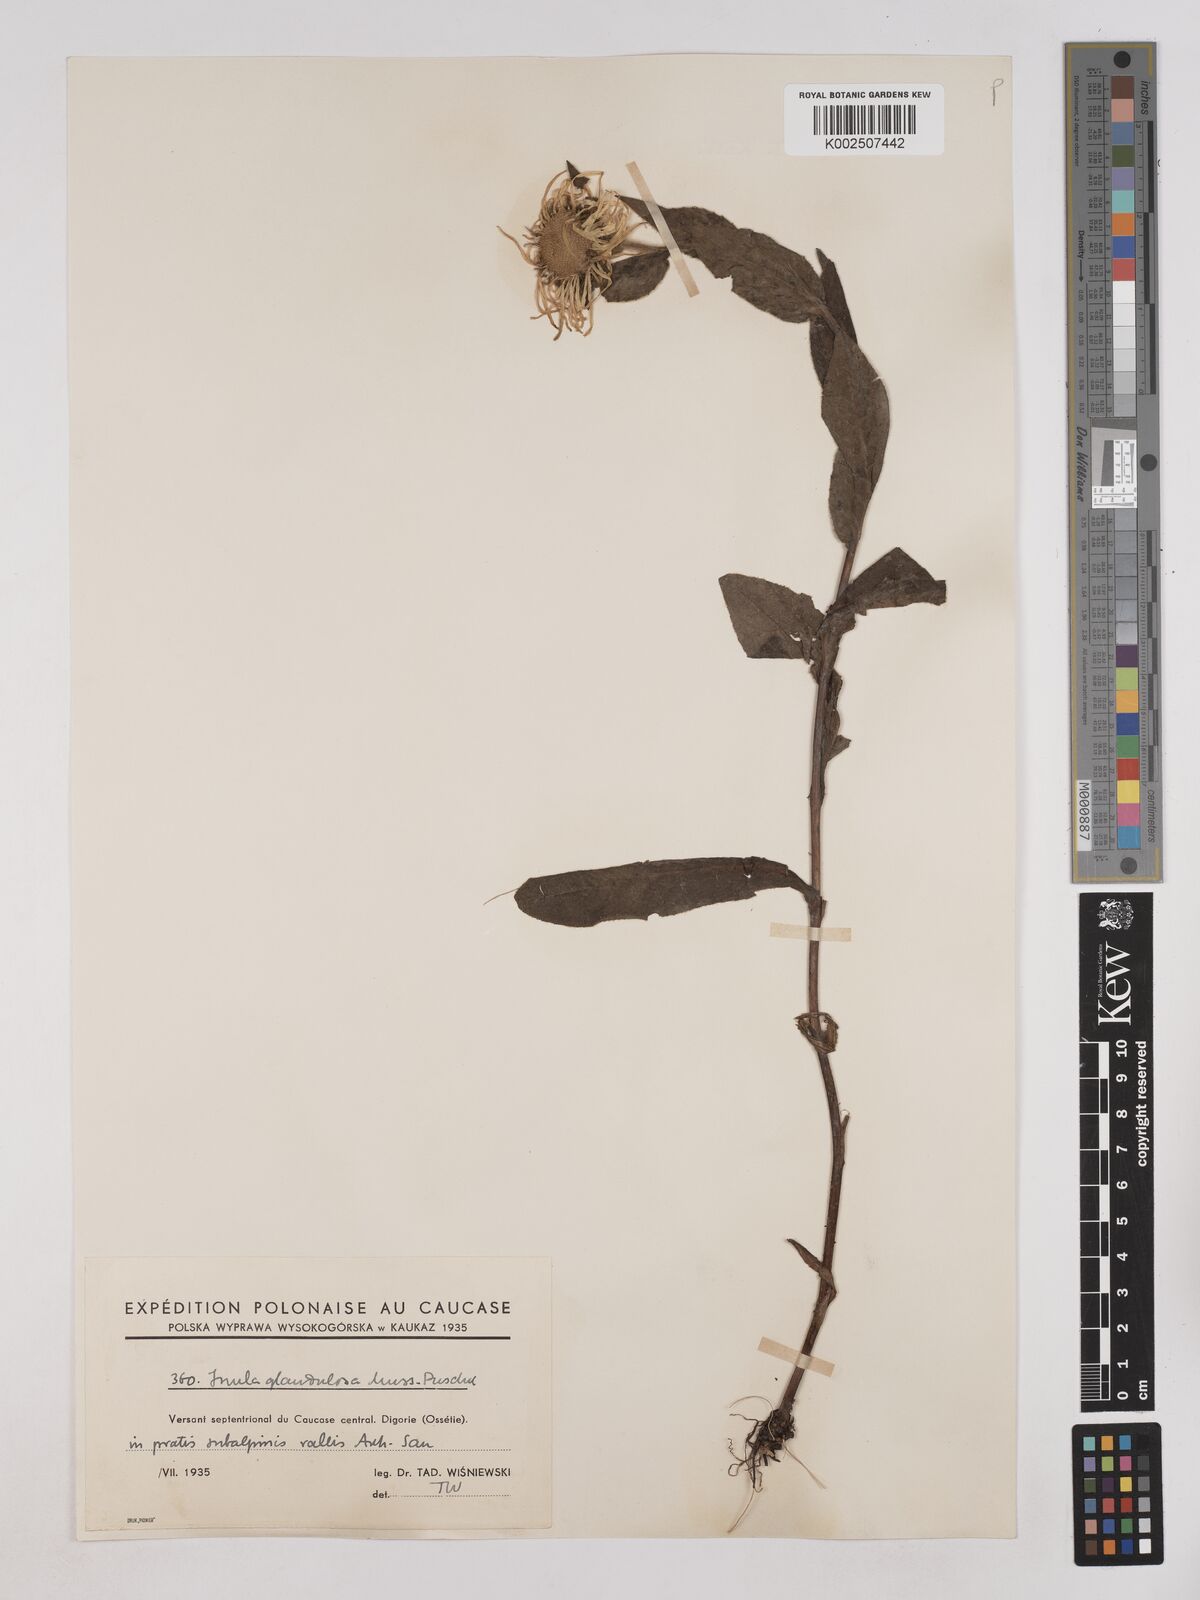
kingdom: Plantae
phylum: Tracheophyta
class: Magnoliopsida
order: Asterales
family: Asteraceae
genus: Pentanema
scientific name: Pentanema orientale
